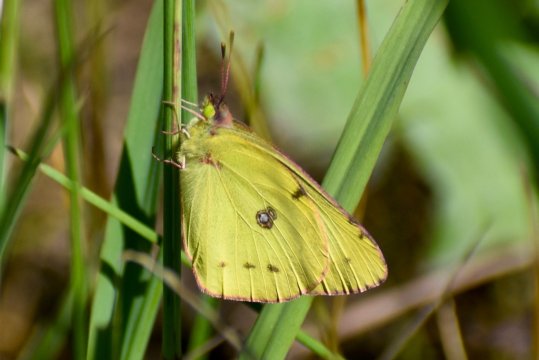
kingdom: Animalia
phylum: Arthropoda
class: Insecta
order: Lepidoptera
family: Pieridae
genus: Colias
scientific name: Colias philodice
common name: Clouded Sulphur
